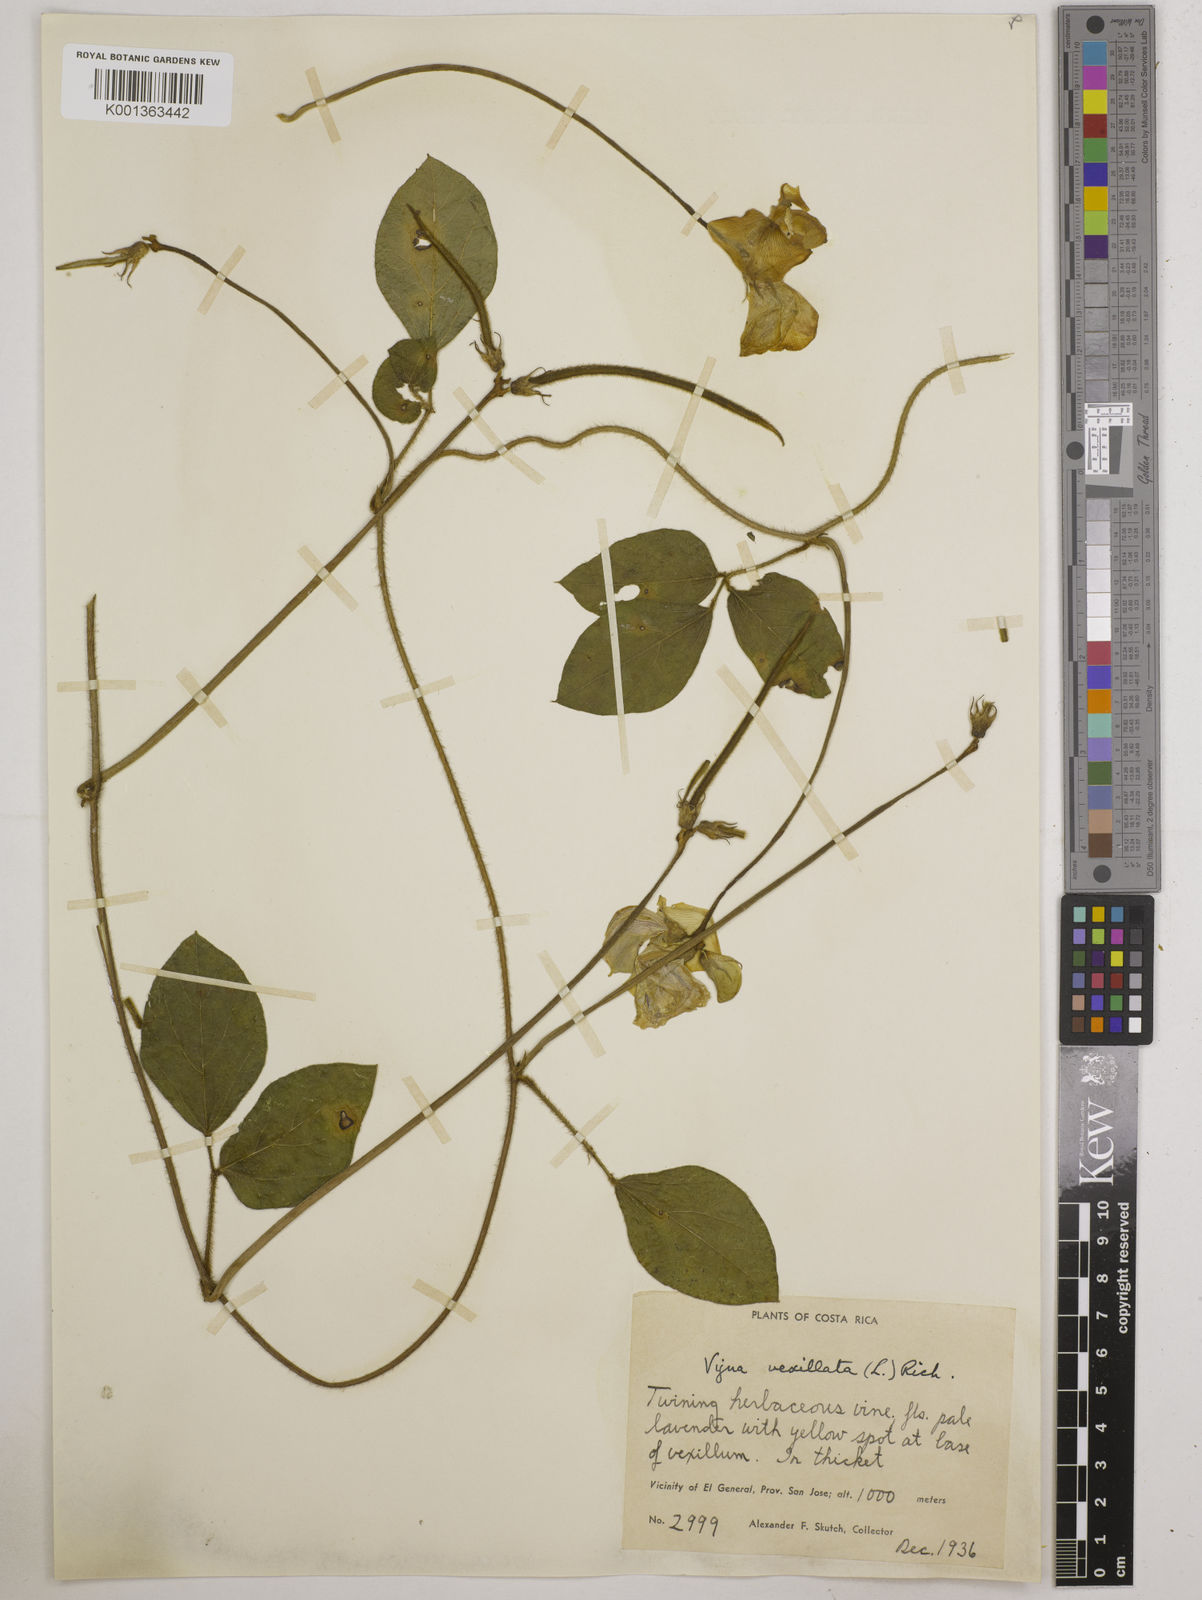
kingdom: Plantae
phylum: Tracheophyta
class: Magnoliopsida
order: Fabales
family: Fabaceae
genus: Vigna
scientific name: Vigna vexillata
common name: Zombi pea
